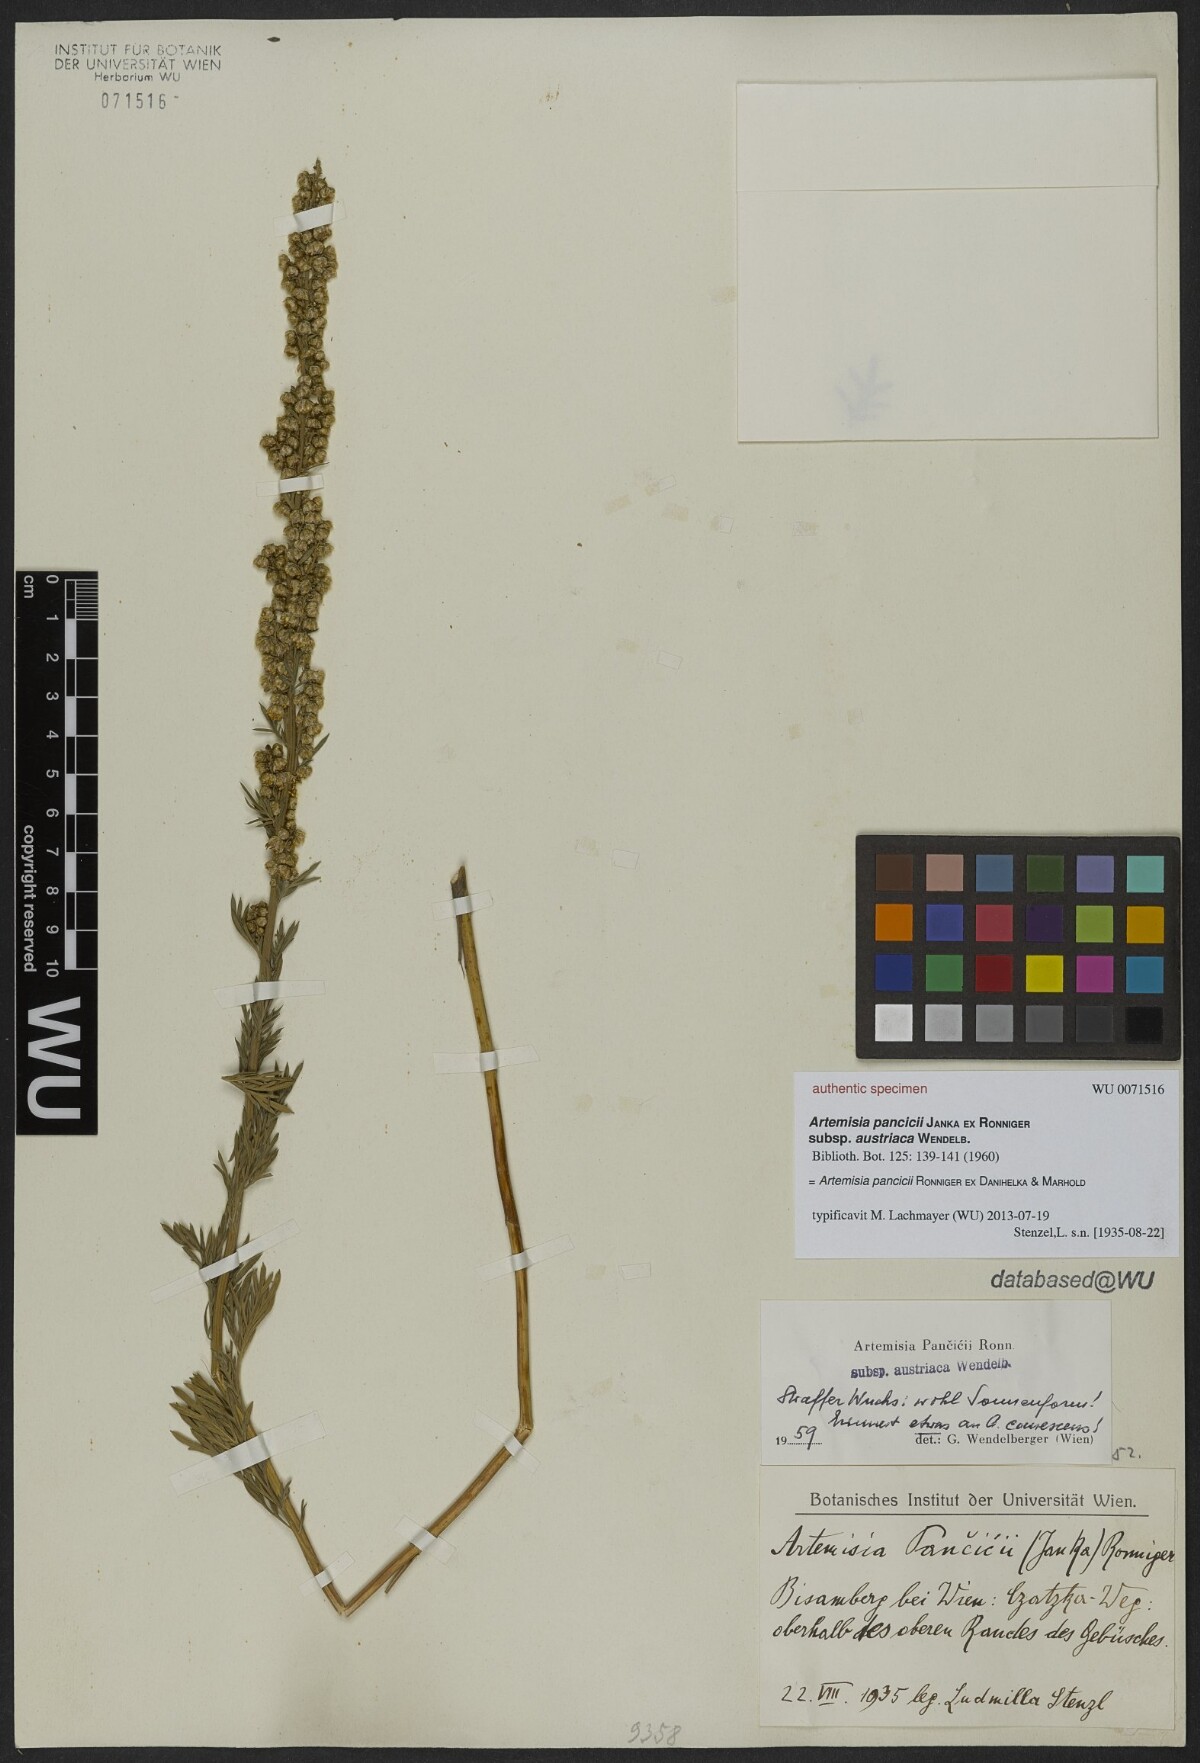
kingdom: Plantae
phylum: Tracheophyta
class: Magnoliopsida
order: Asterales
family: Asteraceae
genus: Artemisia
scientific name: Artemisia pancicii
